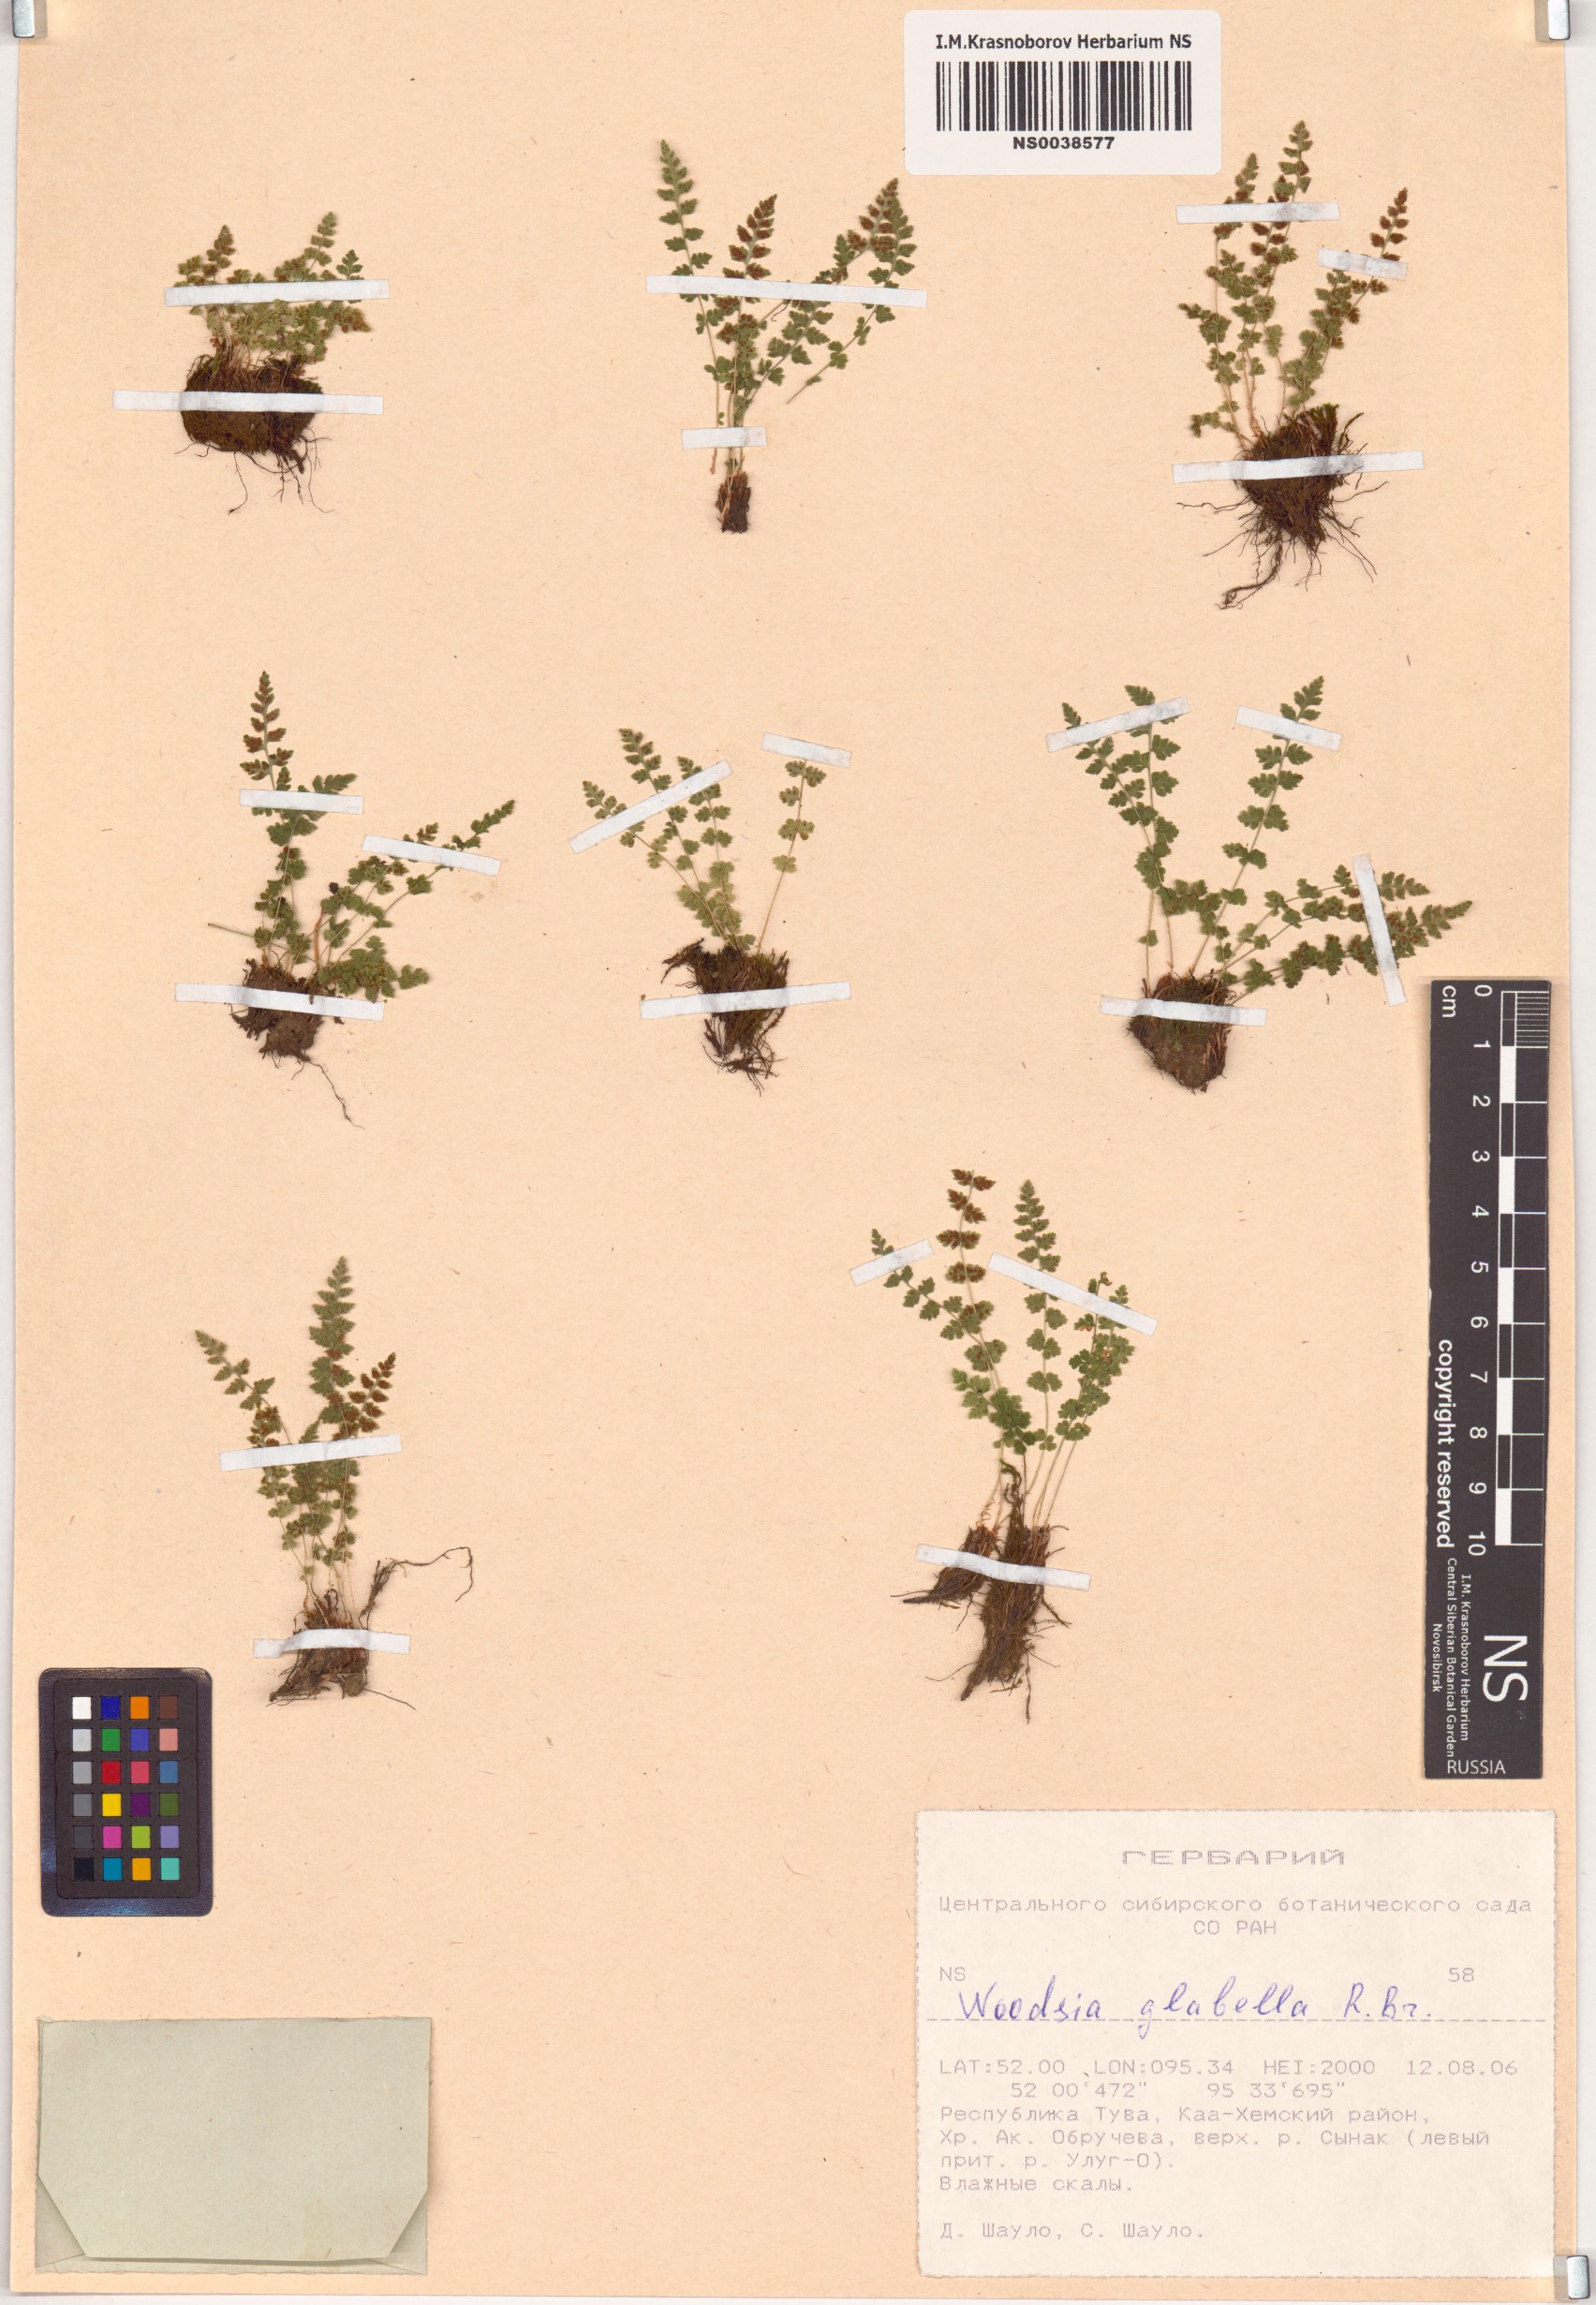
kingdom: Plantae
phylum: Tracheophyta
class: Polypodiopsida
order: Polypodiales
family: Woodsiaceae
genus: Woodsia
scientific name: Woodsia glabella
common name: Smooth woodsia
